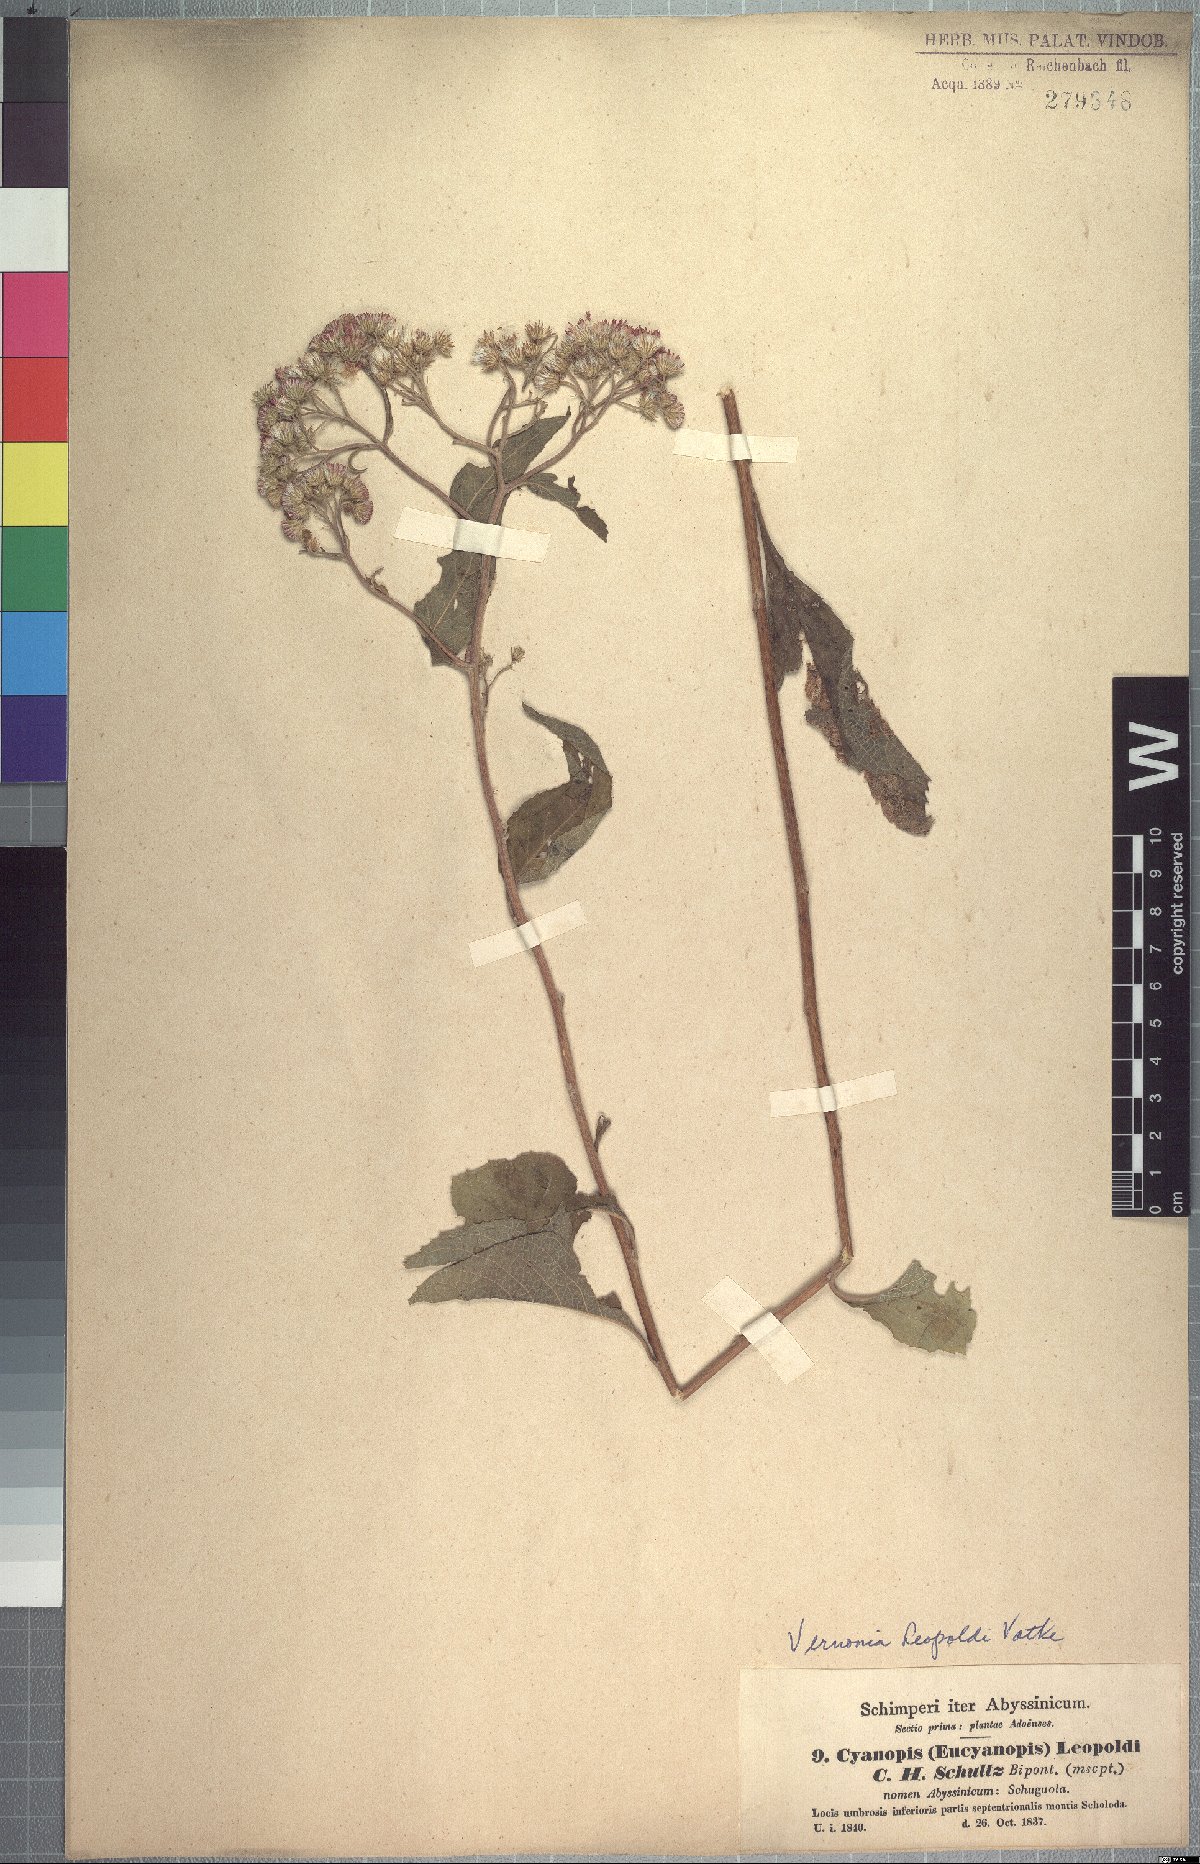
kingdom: Plantae
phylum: Tracheophyta
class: Magnoliopsida
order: Asterales
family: Asteraceae
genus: Orbivestus
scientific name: Orbivestus leopoldii
